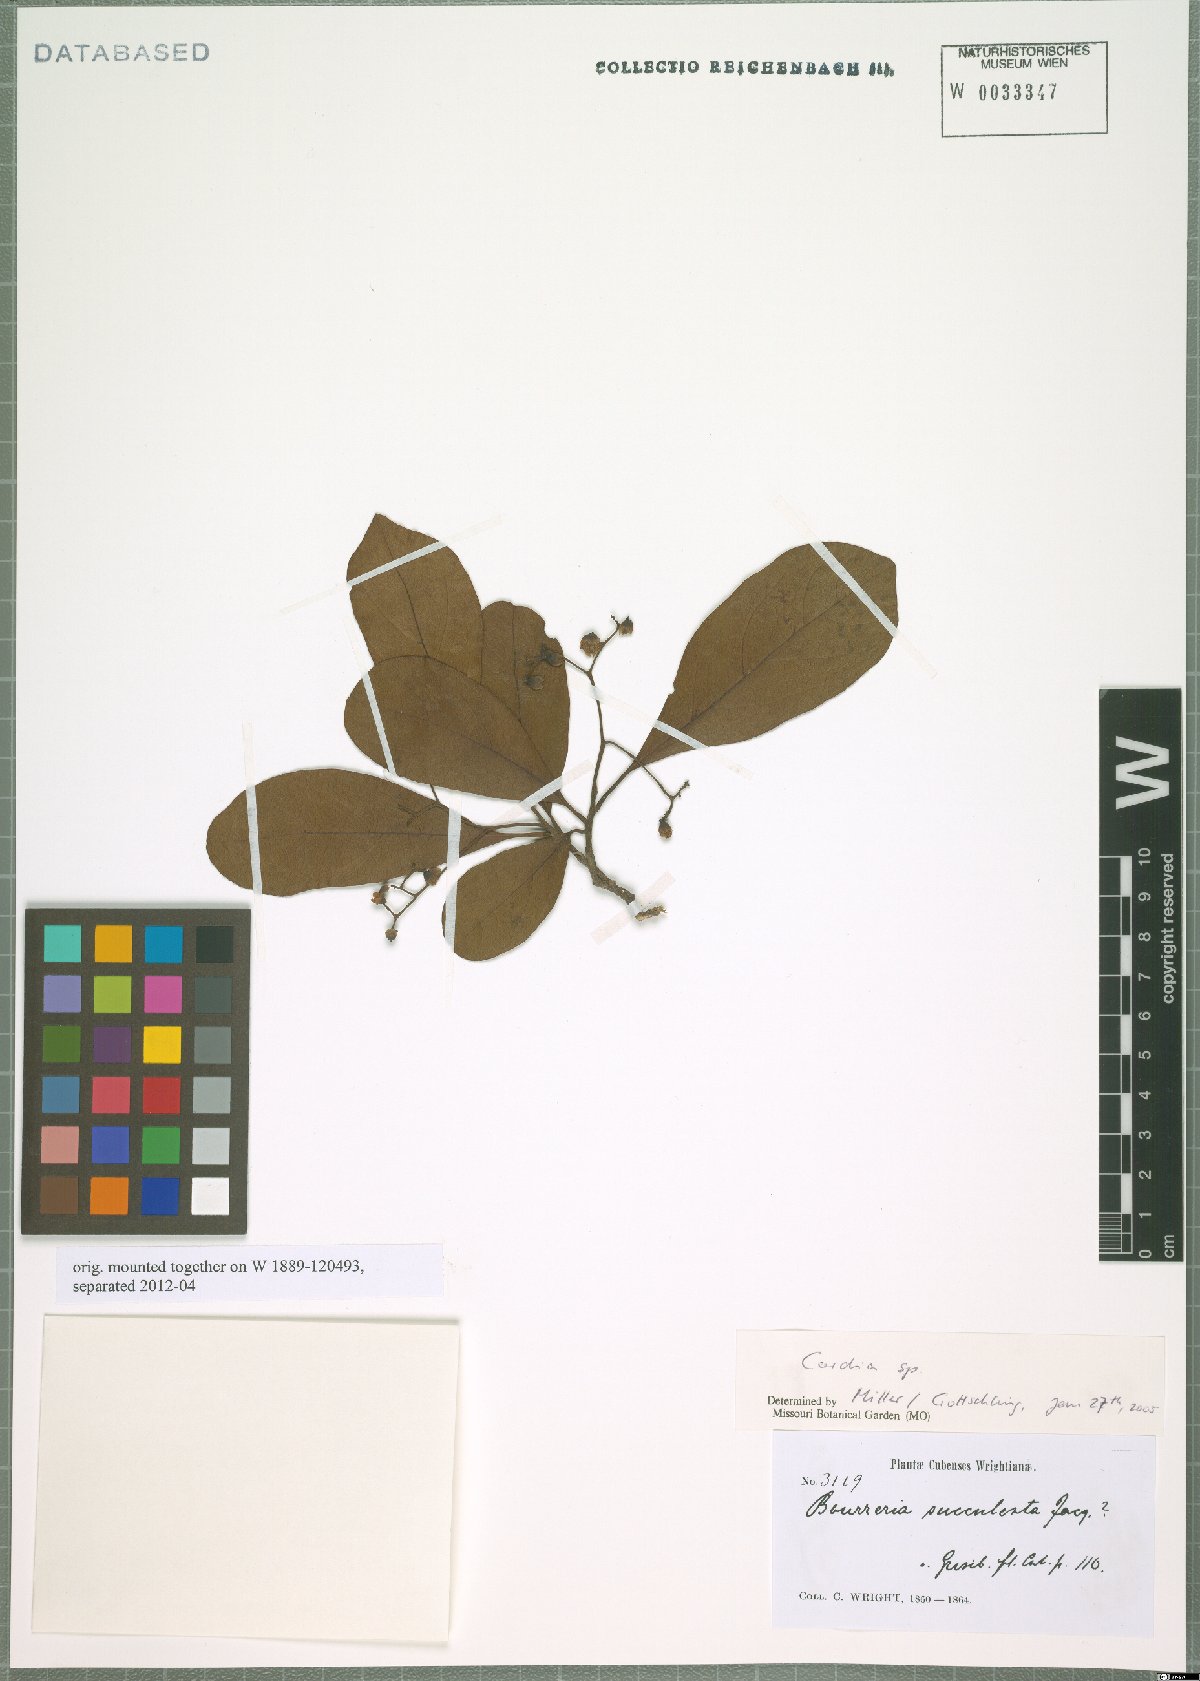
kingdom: Plantae
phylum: Tracheophyta
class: Magnoliopsida
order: Boraginales
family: Cordiaceae
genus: Cordia
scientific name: Cordia
